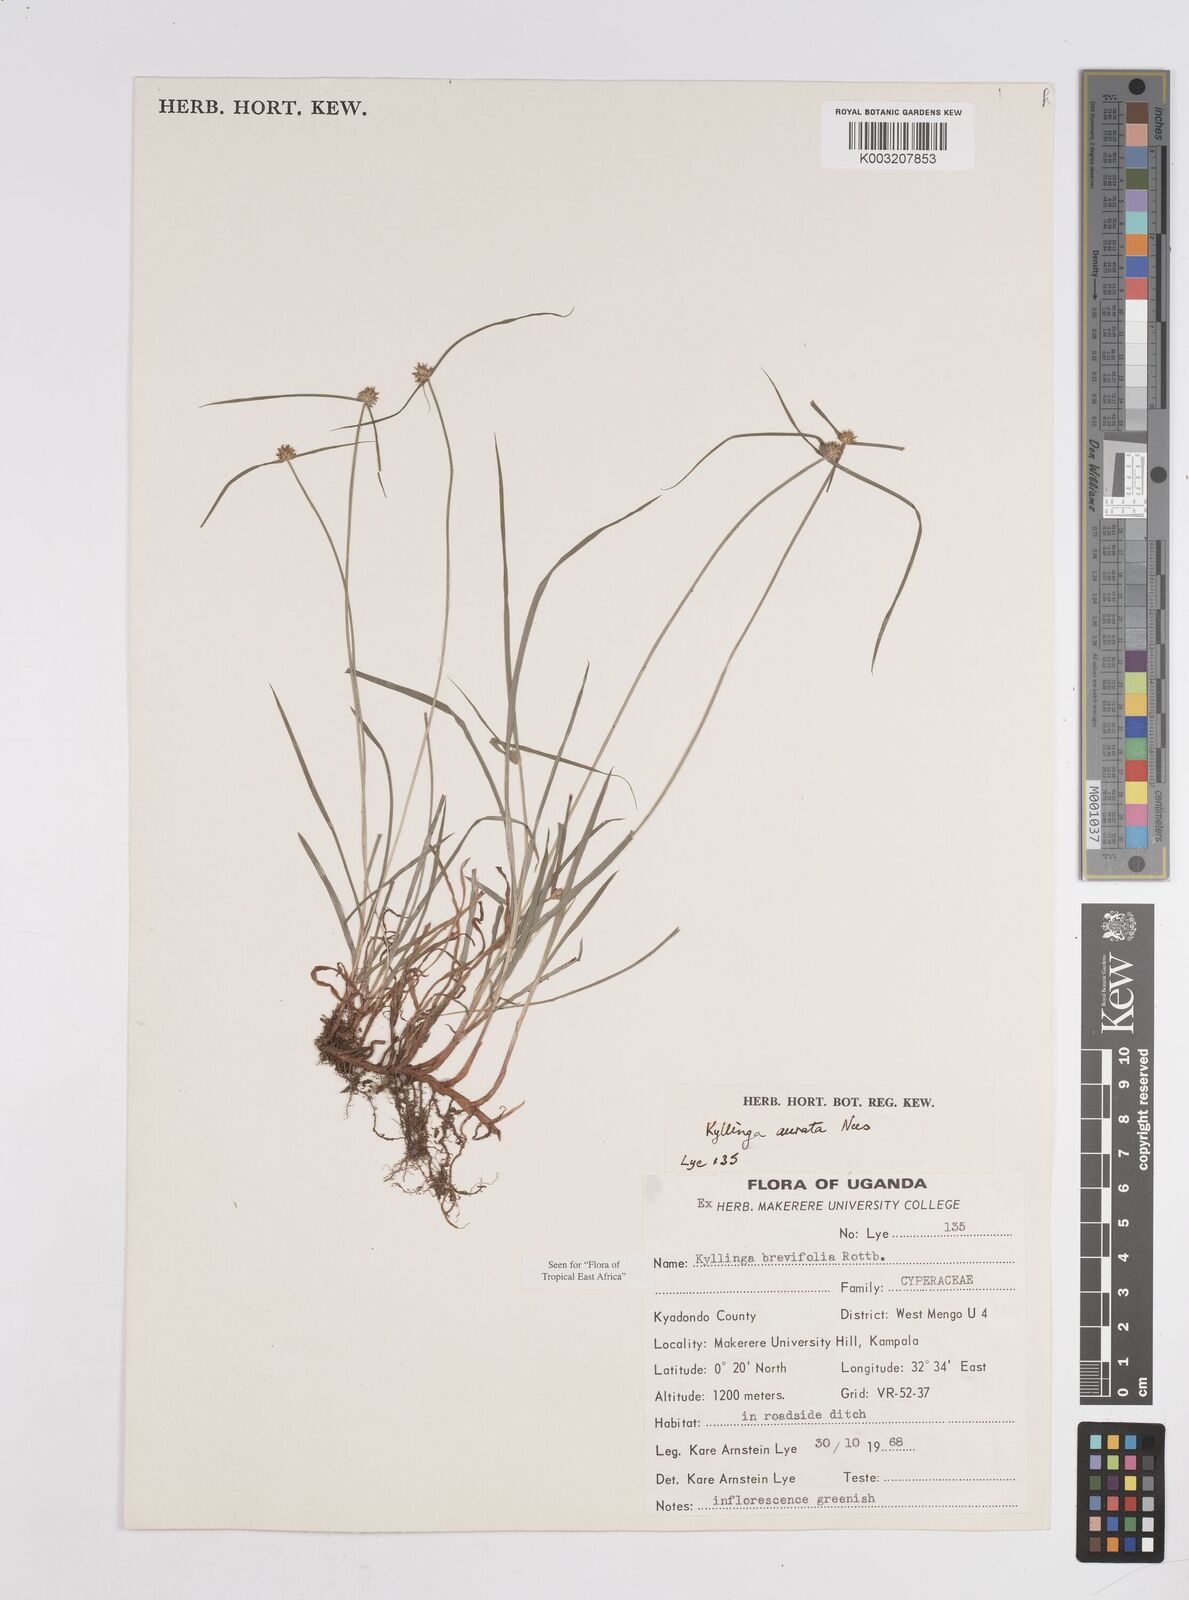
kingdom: Plantae
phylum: Tracheophyta
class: Liliopsida
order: Poales
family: Cyperaceae
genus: Cyperus
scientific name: Cyperus brevifolius
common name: Globe kyllinga
